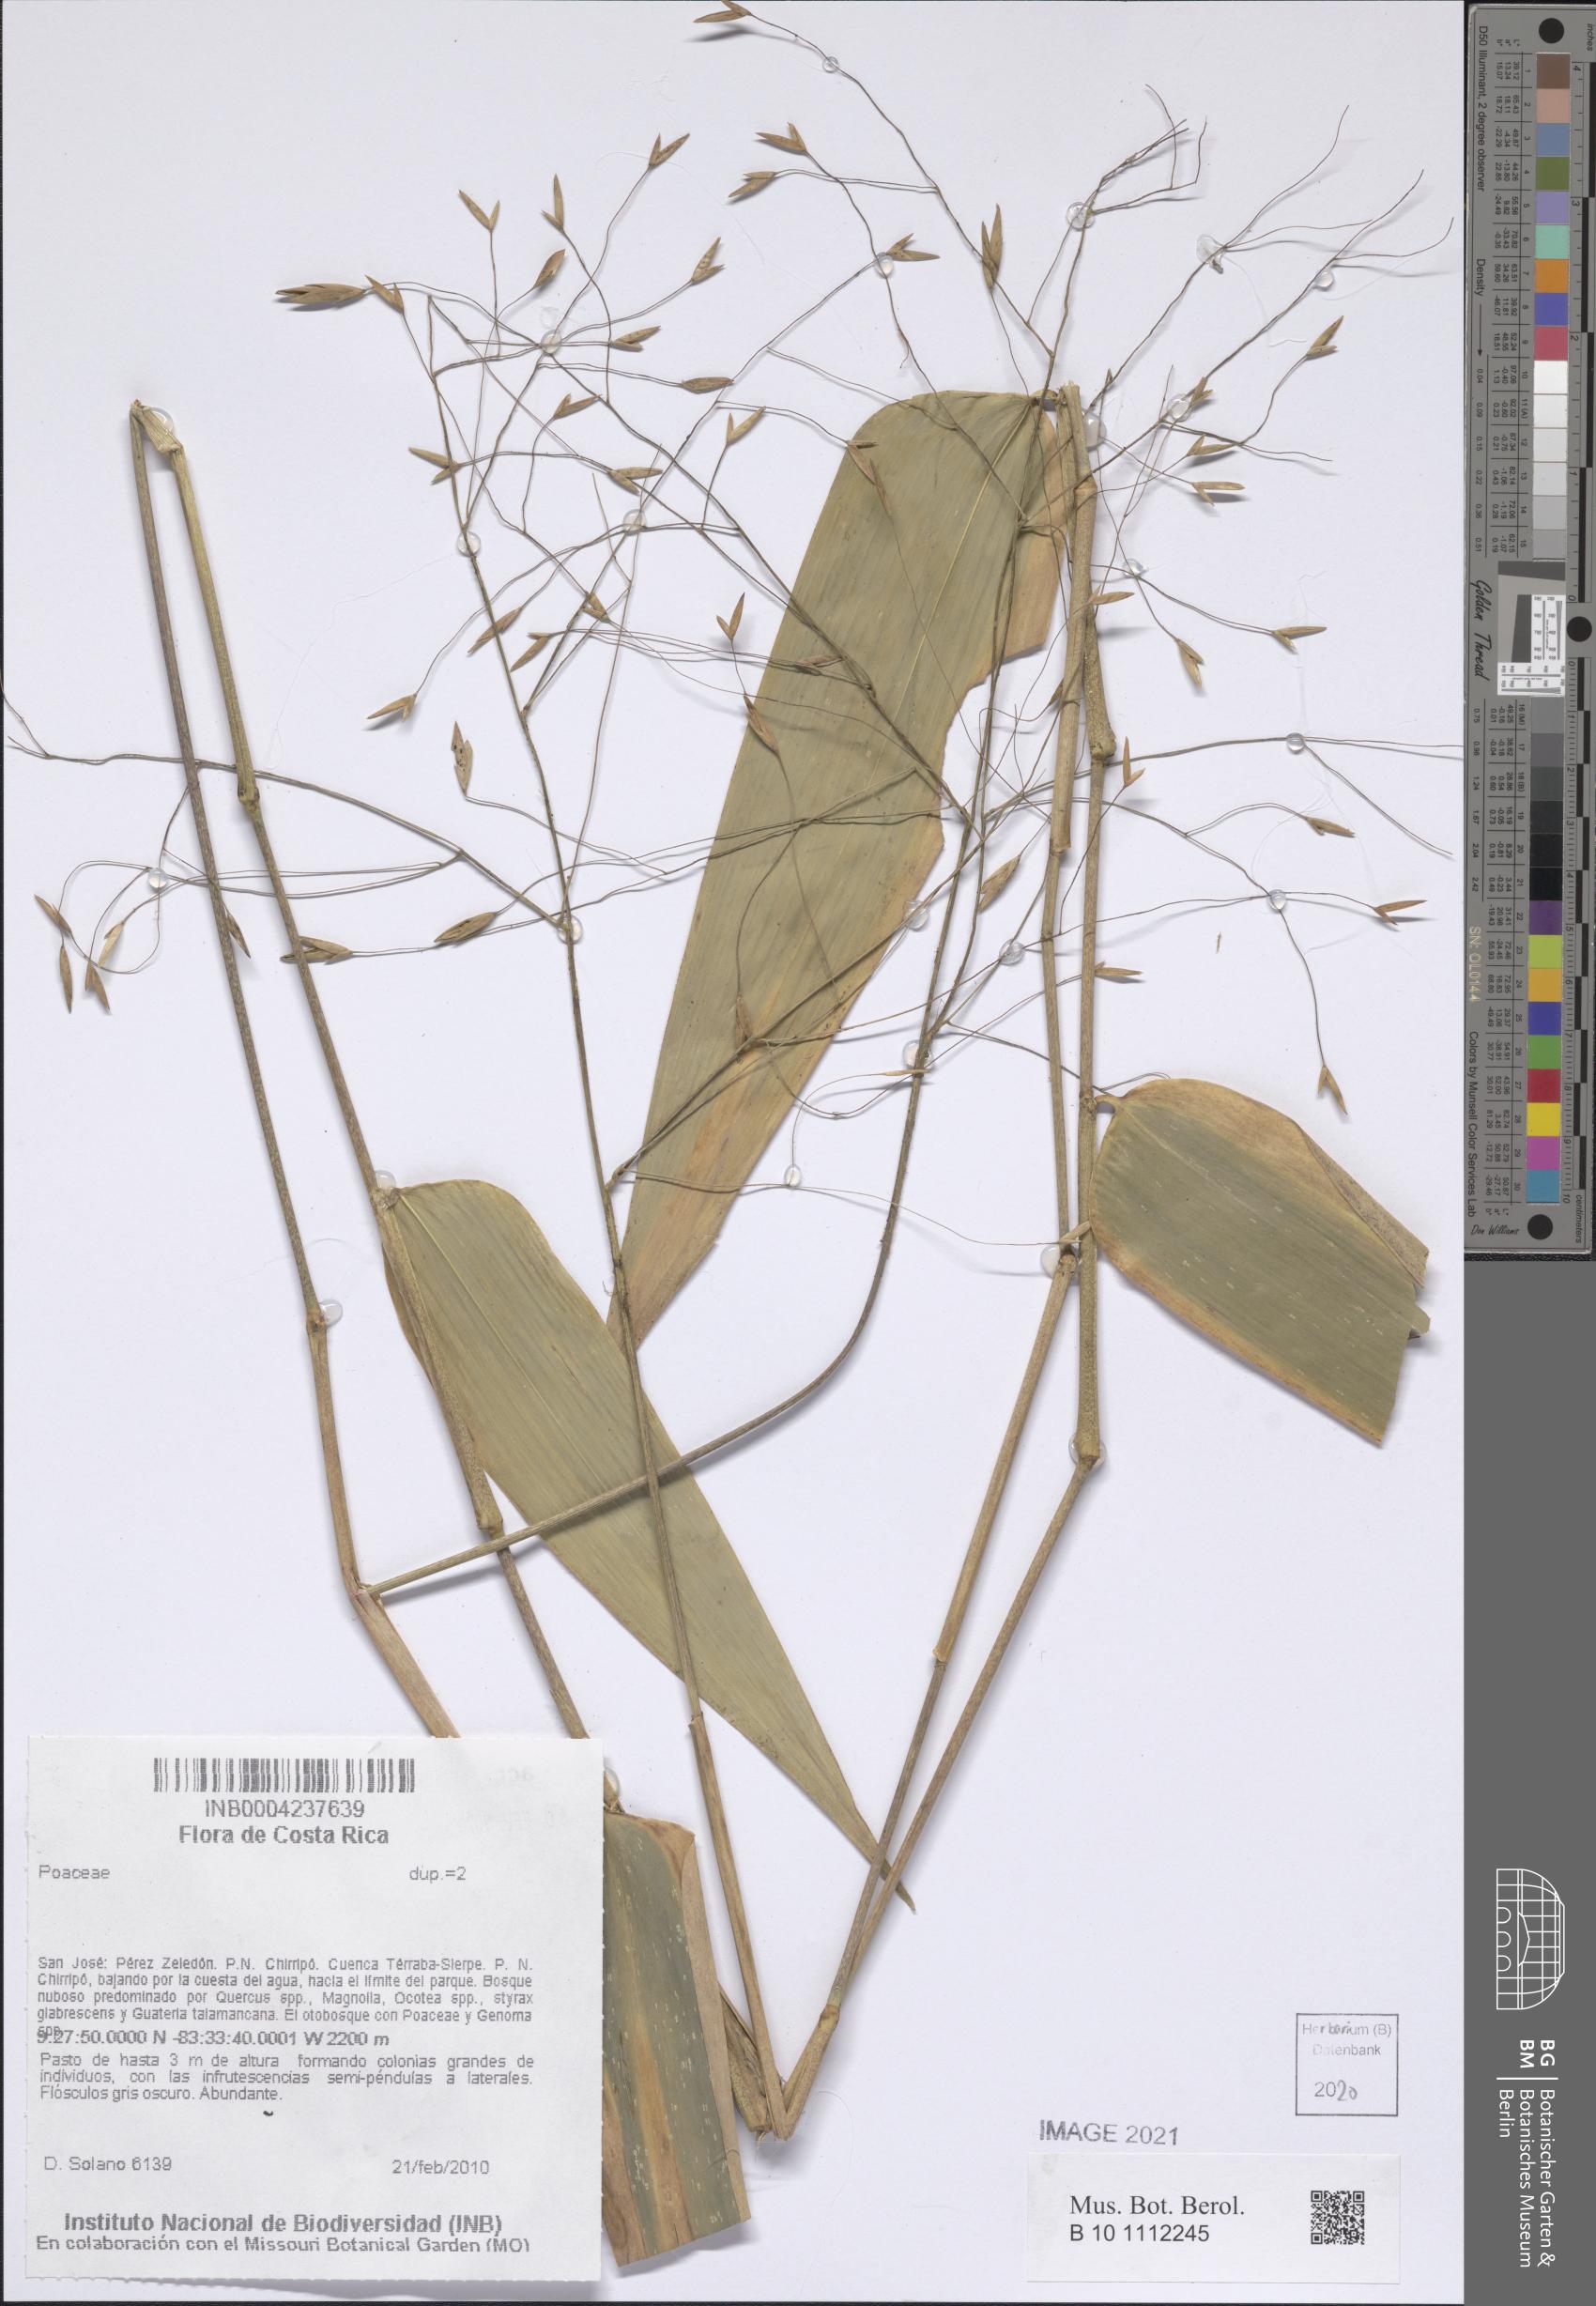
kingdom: Plantae
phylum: Tracheophyta
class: Liliopsida
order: Poales
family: Poaceae
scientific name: Poaceae
